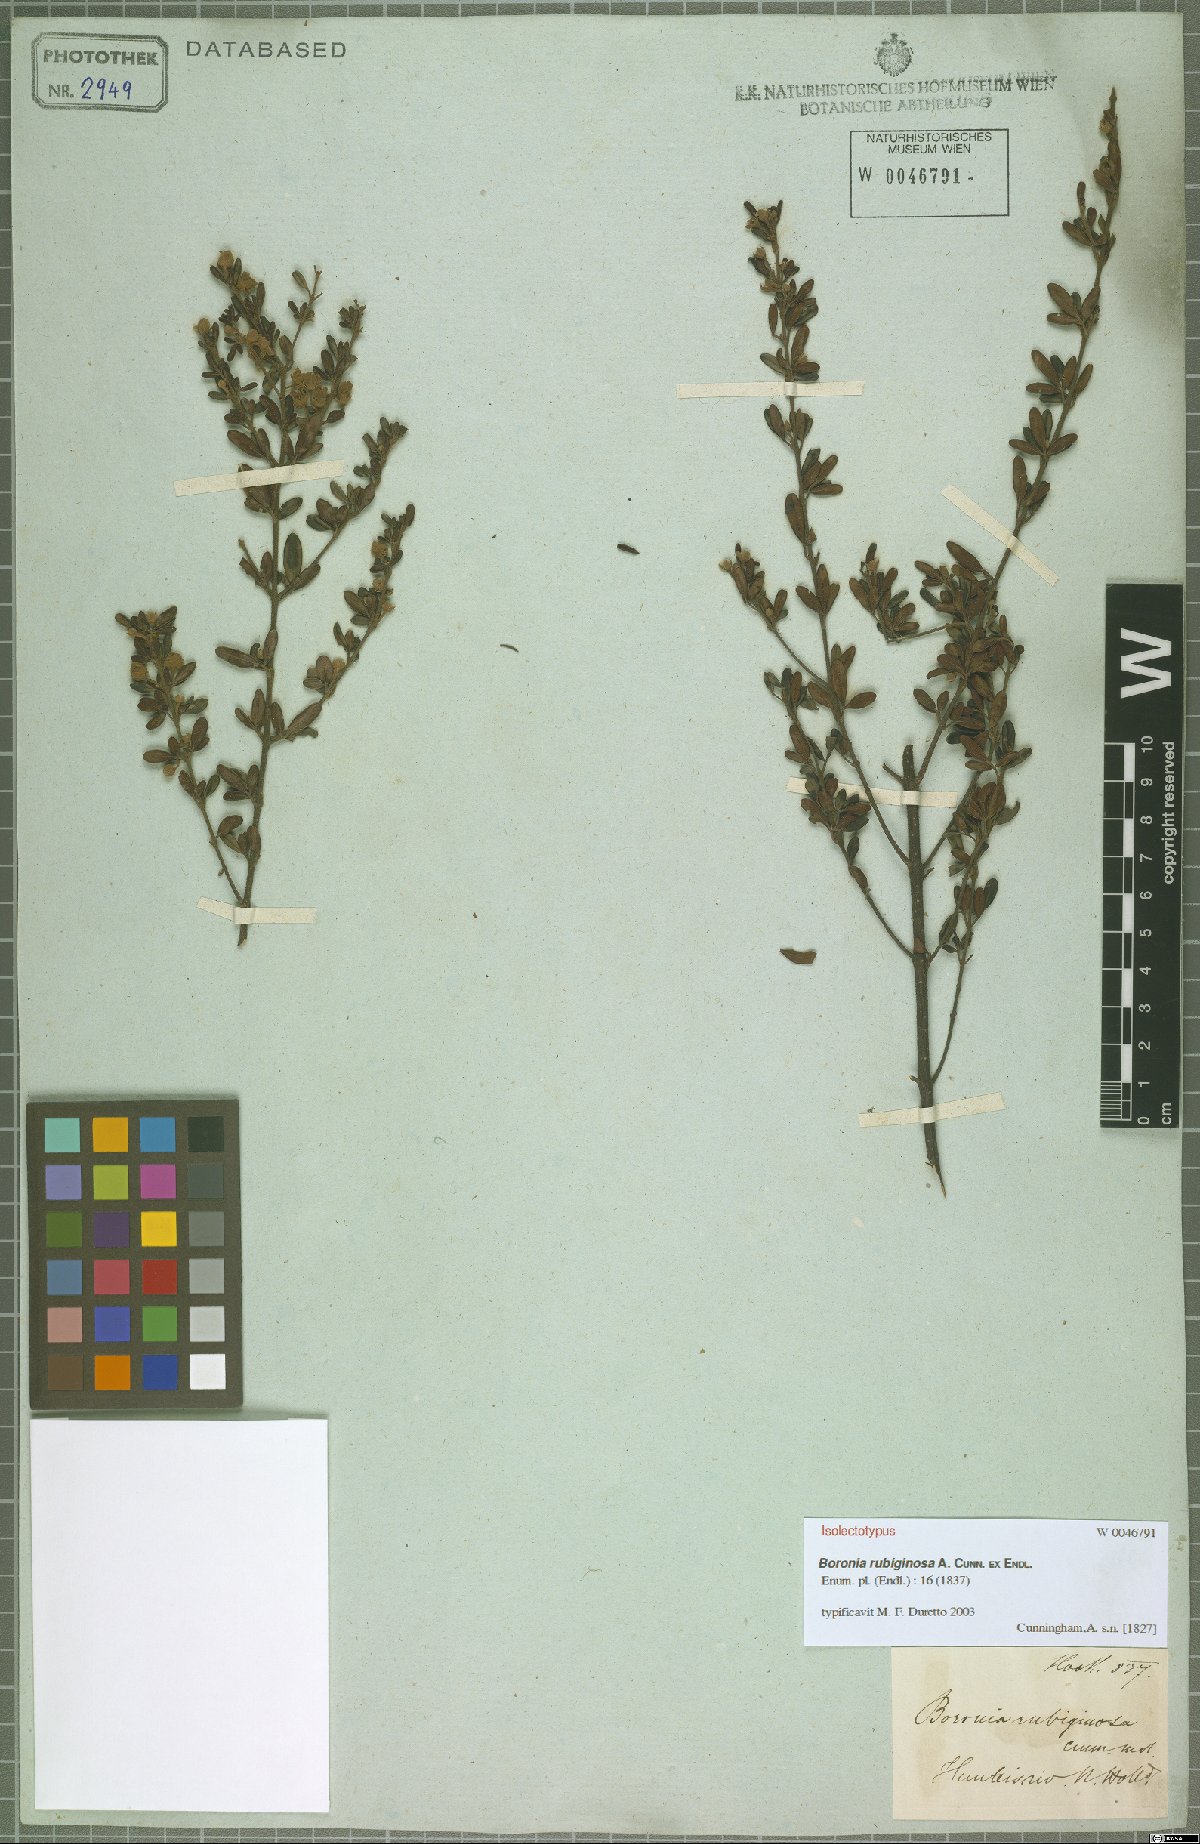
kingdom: Plantae
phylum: Tracheophyta
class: Magnoliopsida
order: Sapindales
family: Rutaceae
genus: Boronia
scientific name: Boronia rubiginosa
